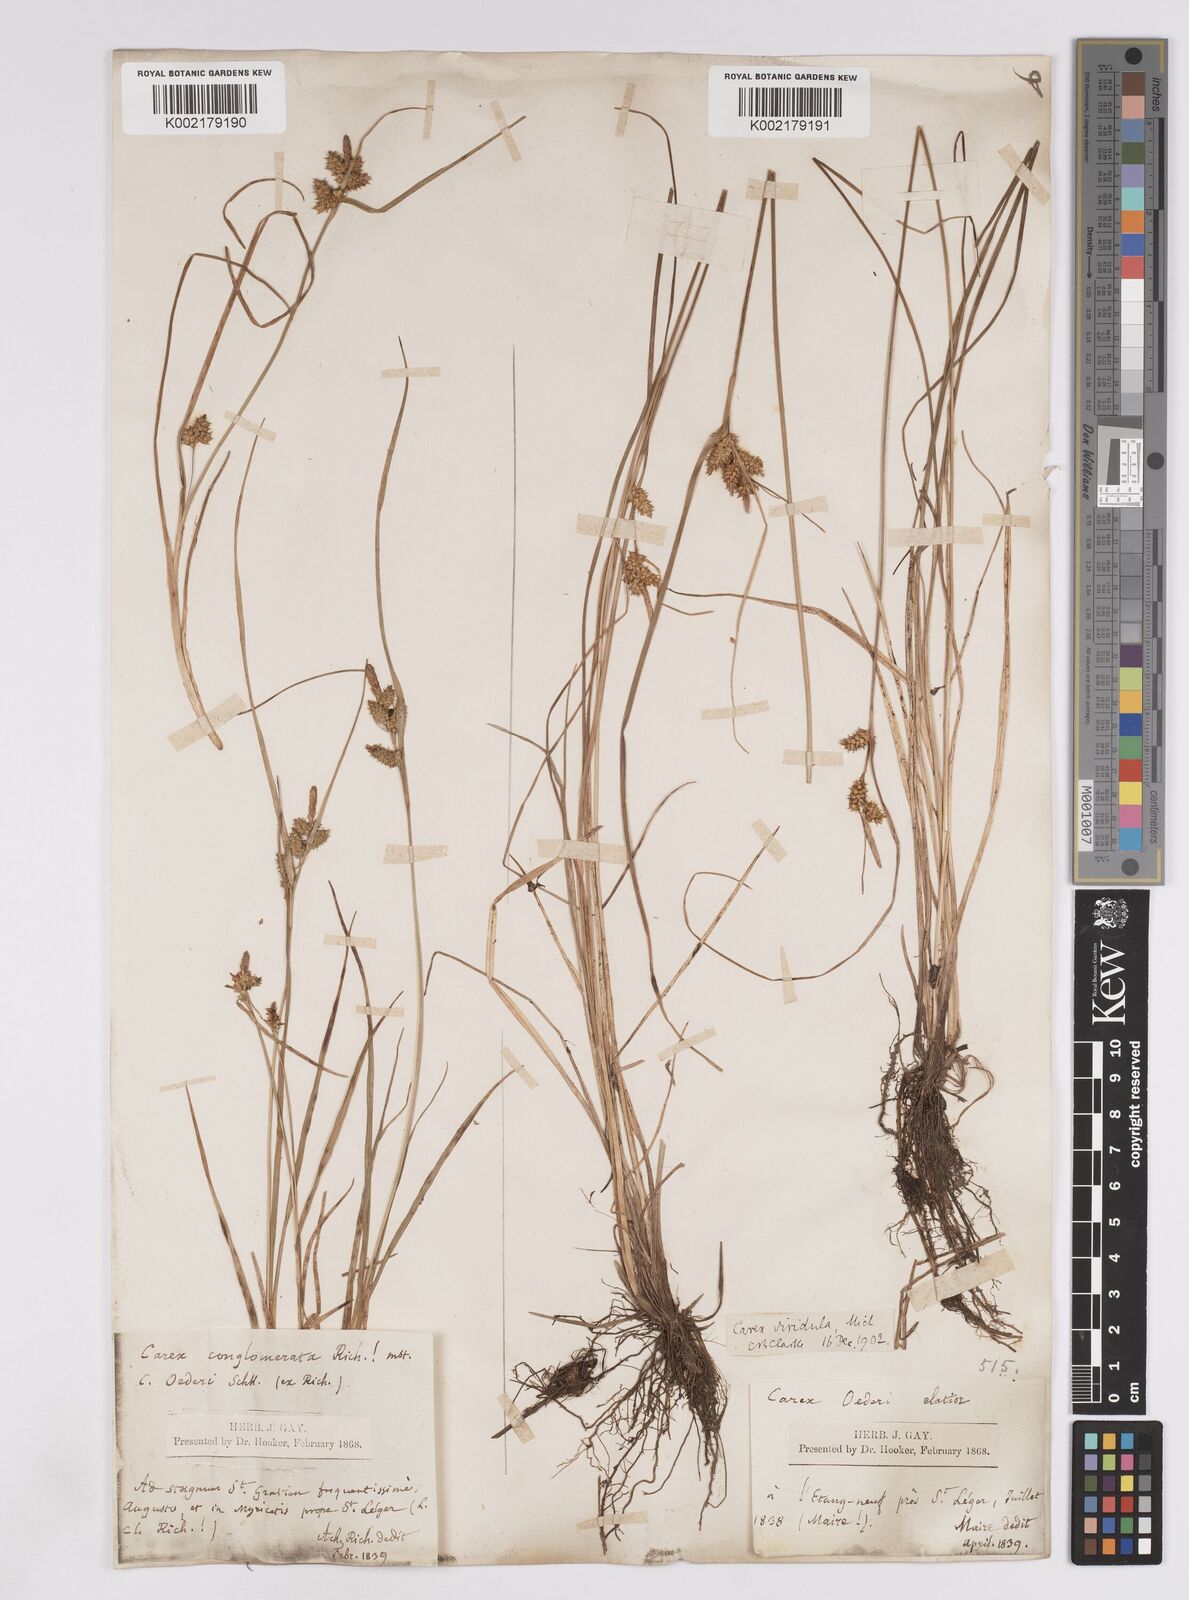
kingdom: Plantae
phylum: Tracheophyta
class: Liliopsida
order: Poales
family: Cyperaceae
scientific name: Cyperaceae
